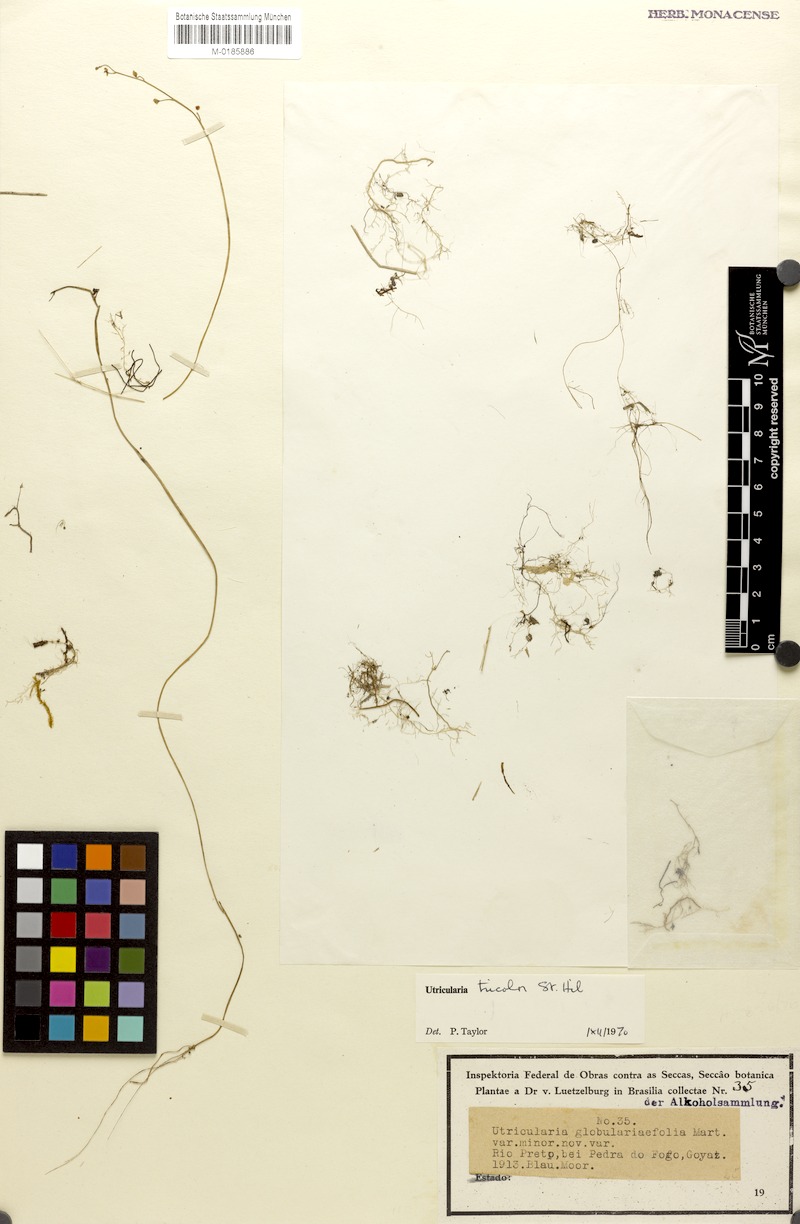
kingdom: Plantae
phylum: Tracheophyta
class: Magnoliopsida
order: Lamiales
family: Lentibulariaceae
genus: Utricularia
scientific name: Utricularia tricolor
